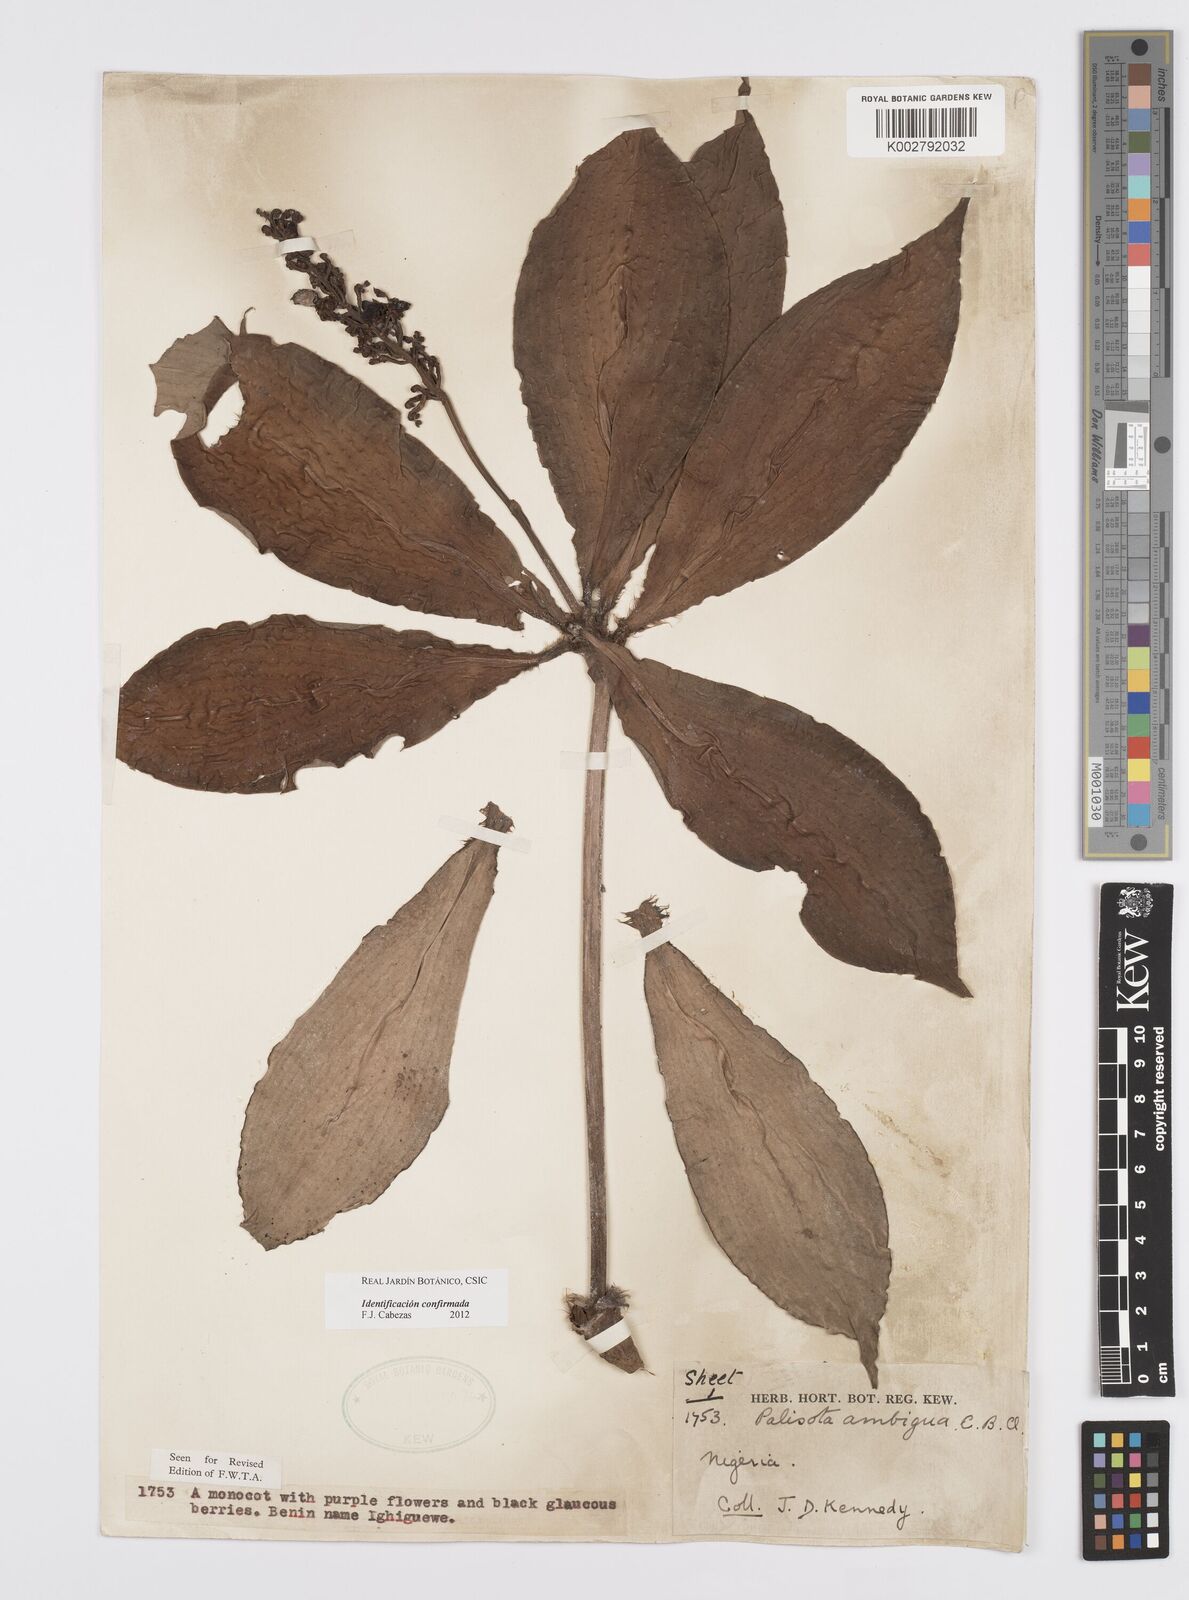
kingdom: Plantae
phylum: Tracheophyta
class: Liliopsida
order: Commelinales
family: Commelinaceae
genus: Palisota
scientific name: Palisota ambigua
